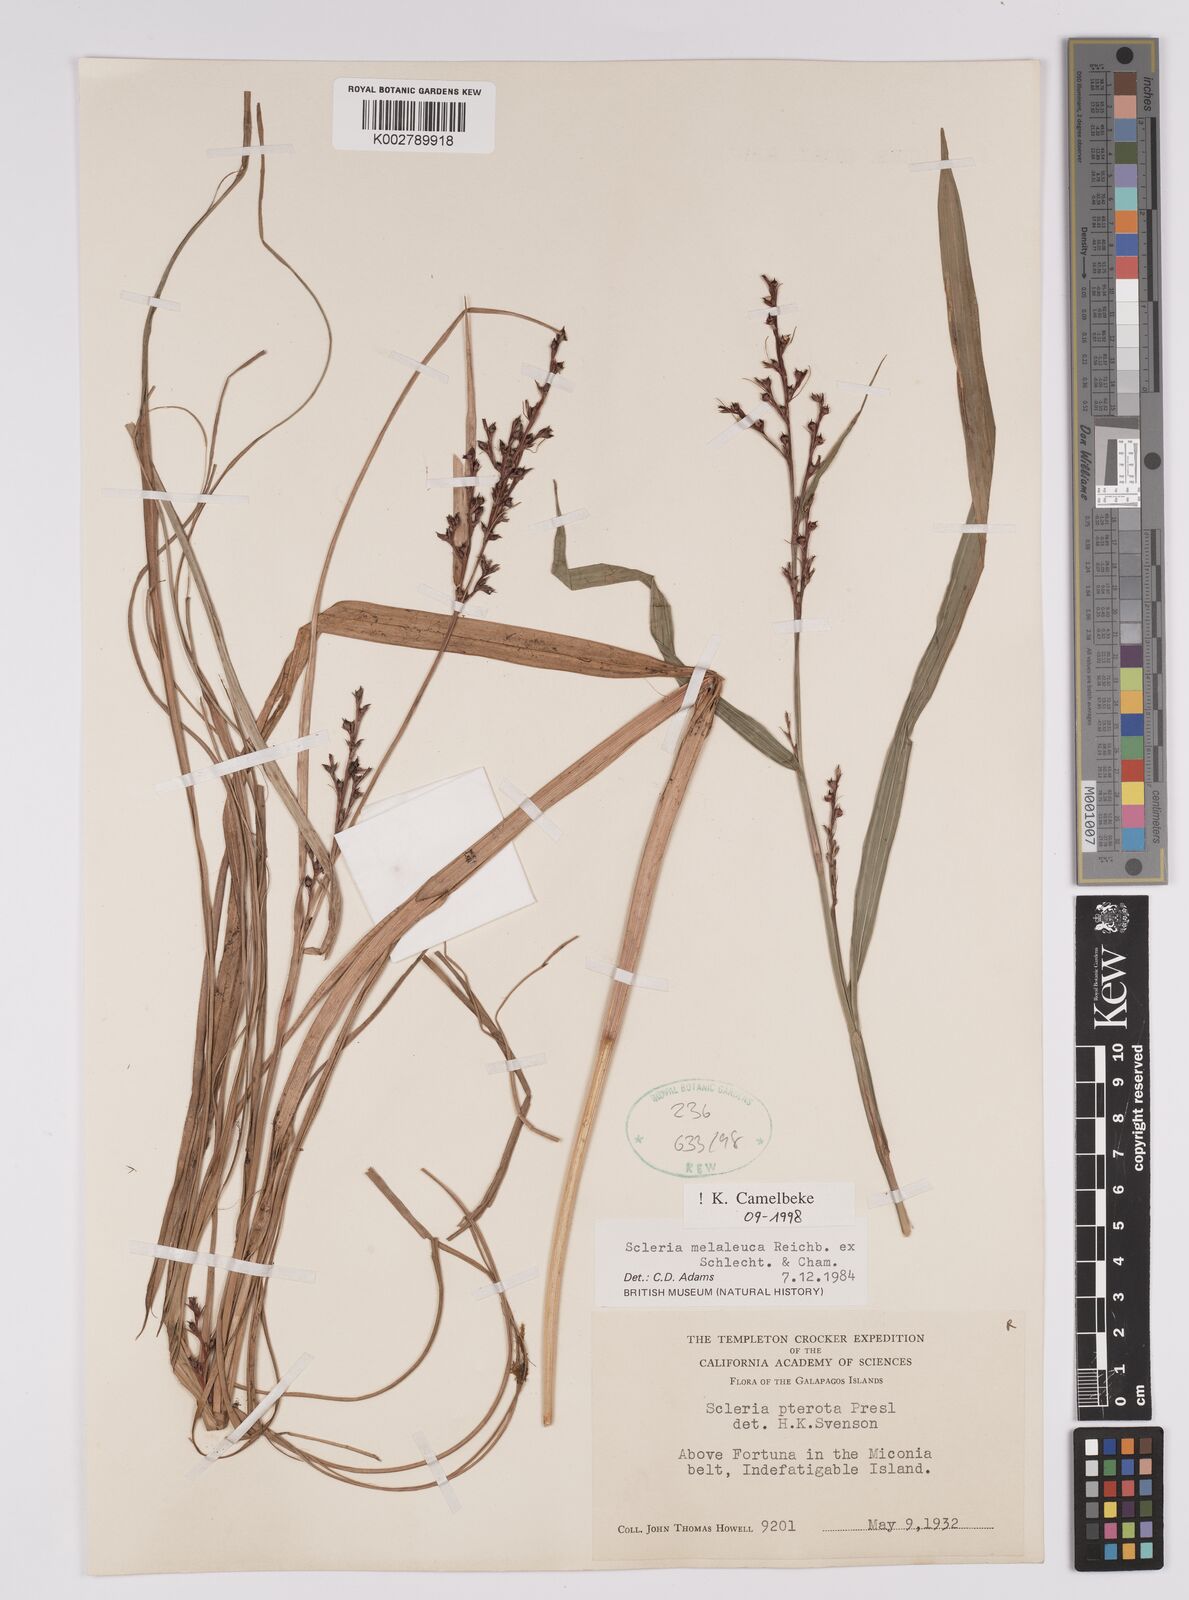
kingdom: Plantae
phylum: Tracheophyta
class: Liliopsida
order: Poales
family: Cyperaceae
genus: Scleria
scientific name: Scleria gaertneri
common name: Cortadera blanca
